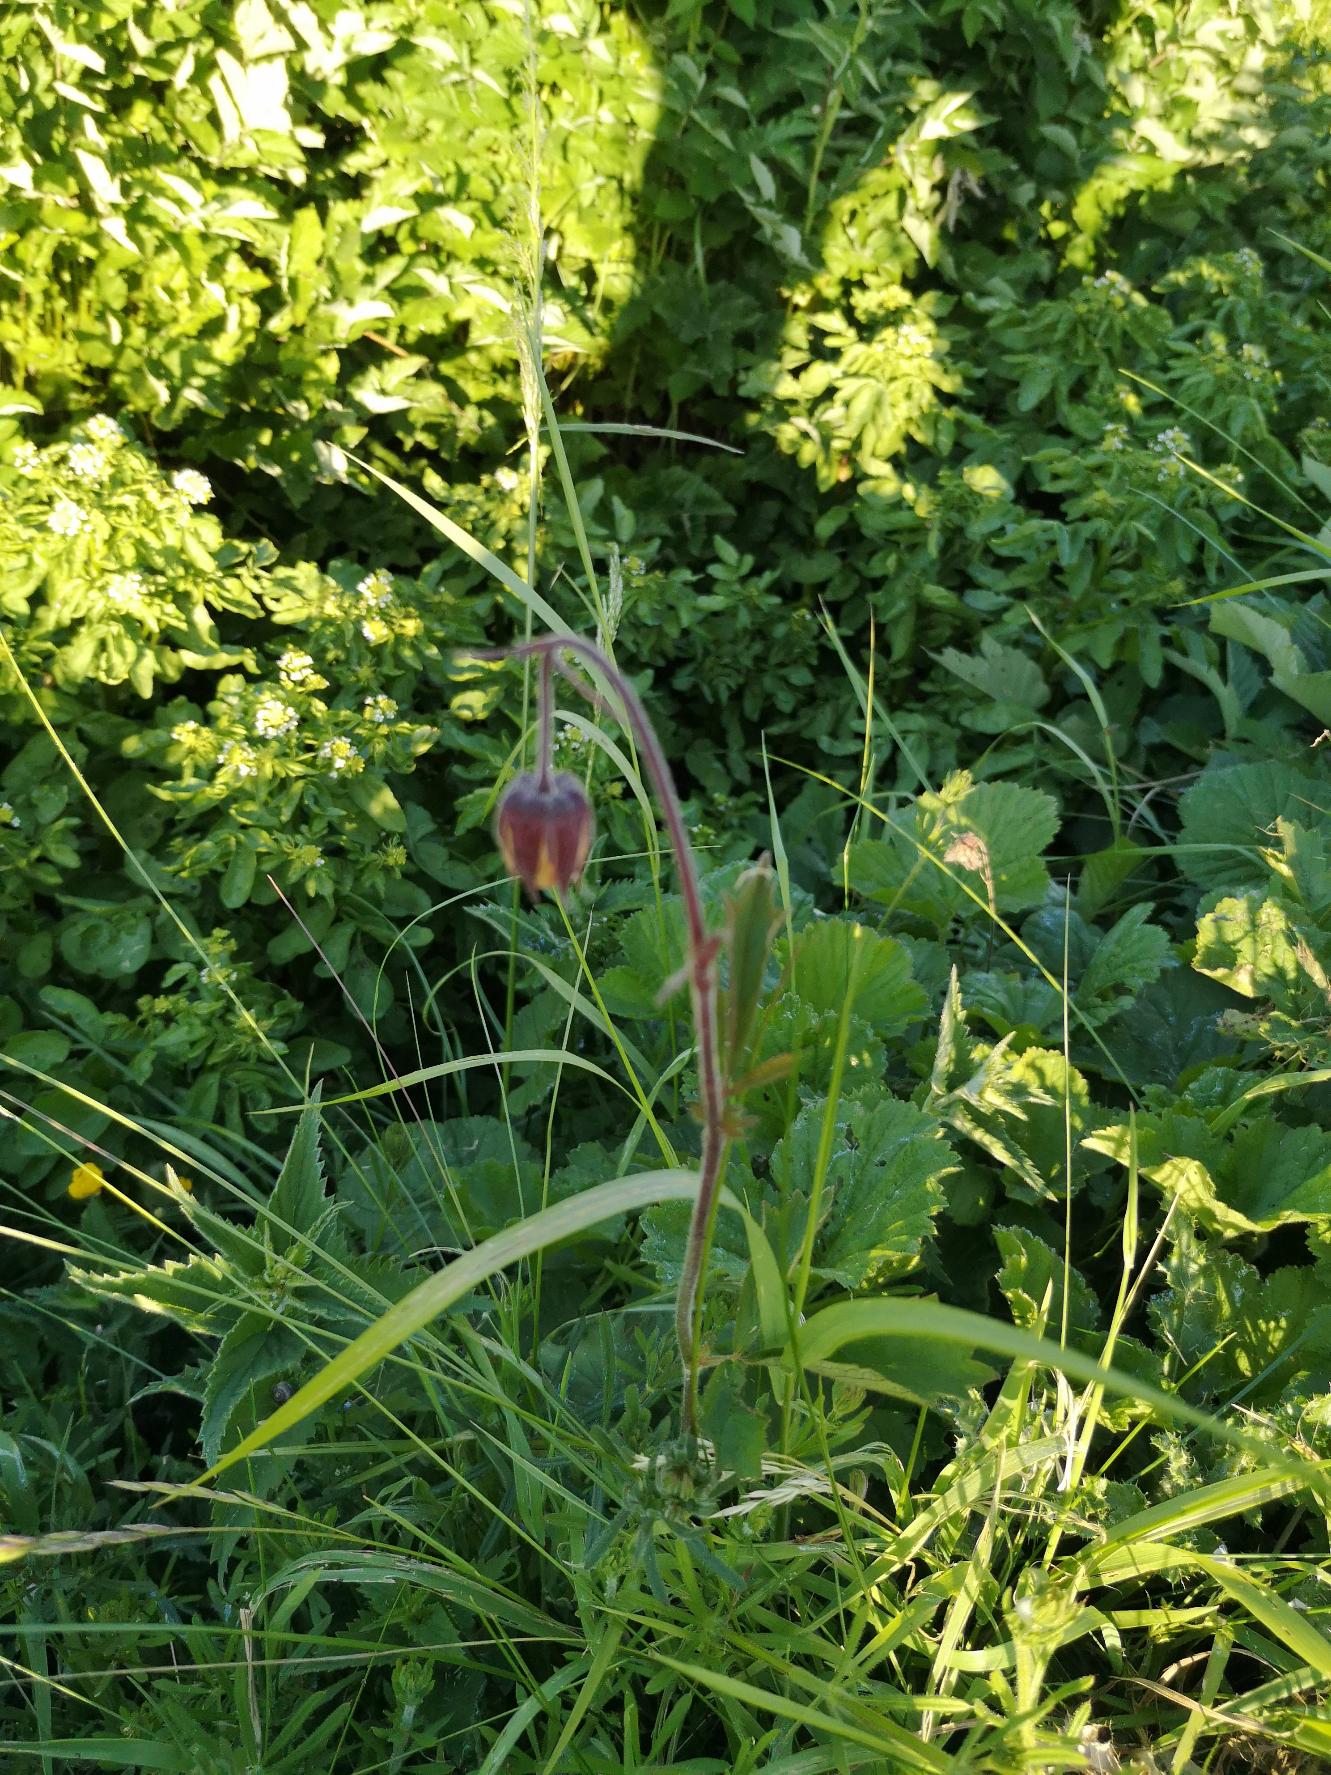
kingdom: Plantae
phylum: Tracheophyta
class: Magnoliopsida
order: Rosales
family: Rosaceae
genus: Geum
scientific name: Geum rivale
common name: Eng-nellikerod
